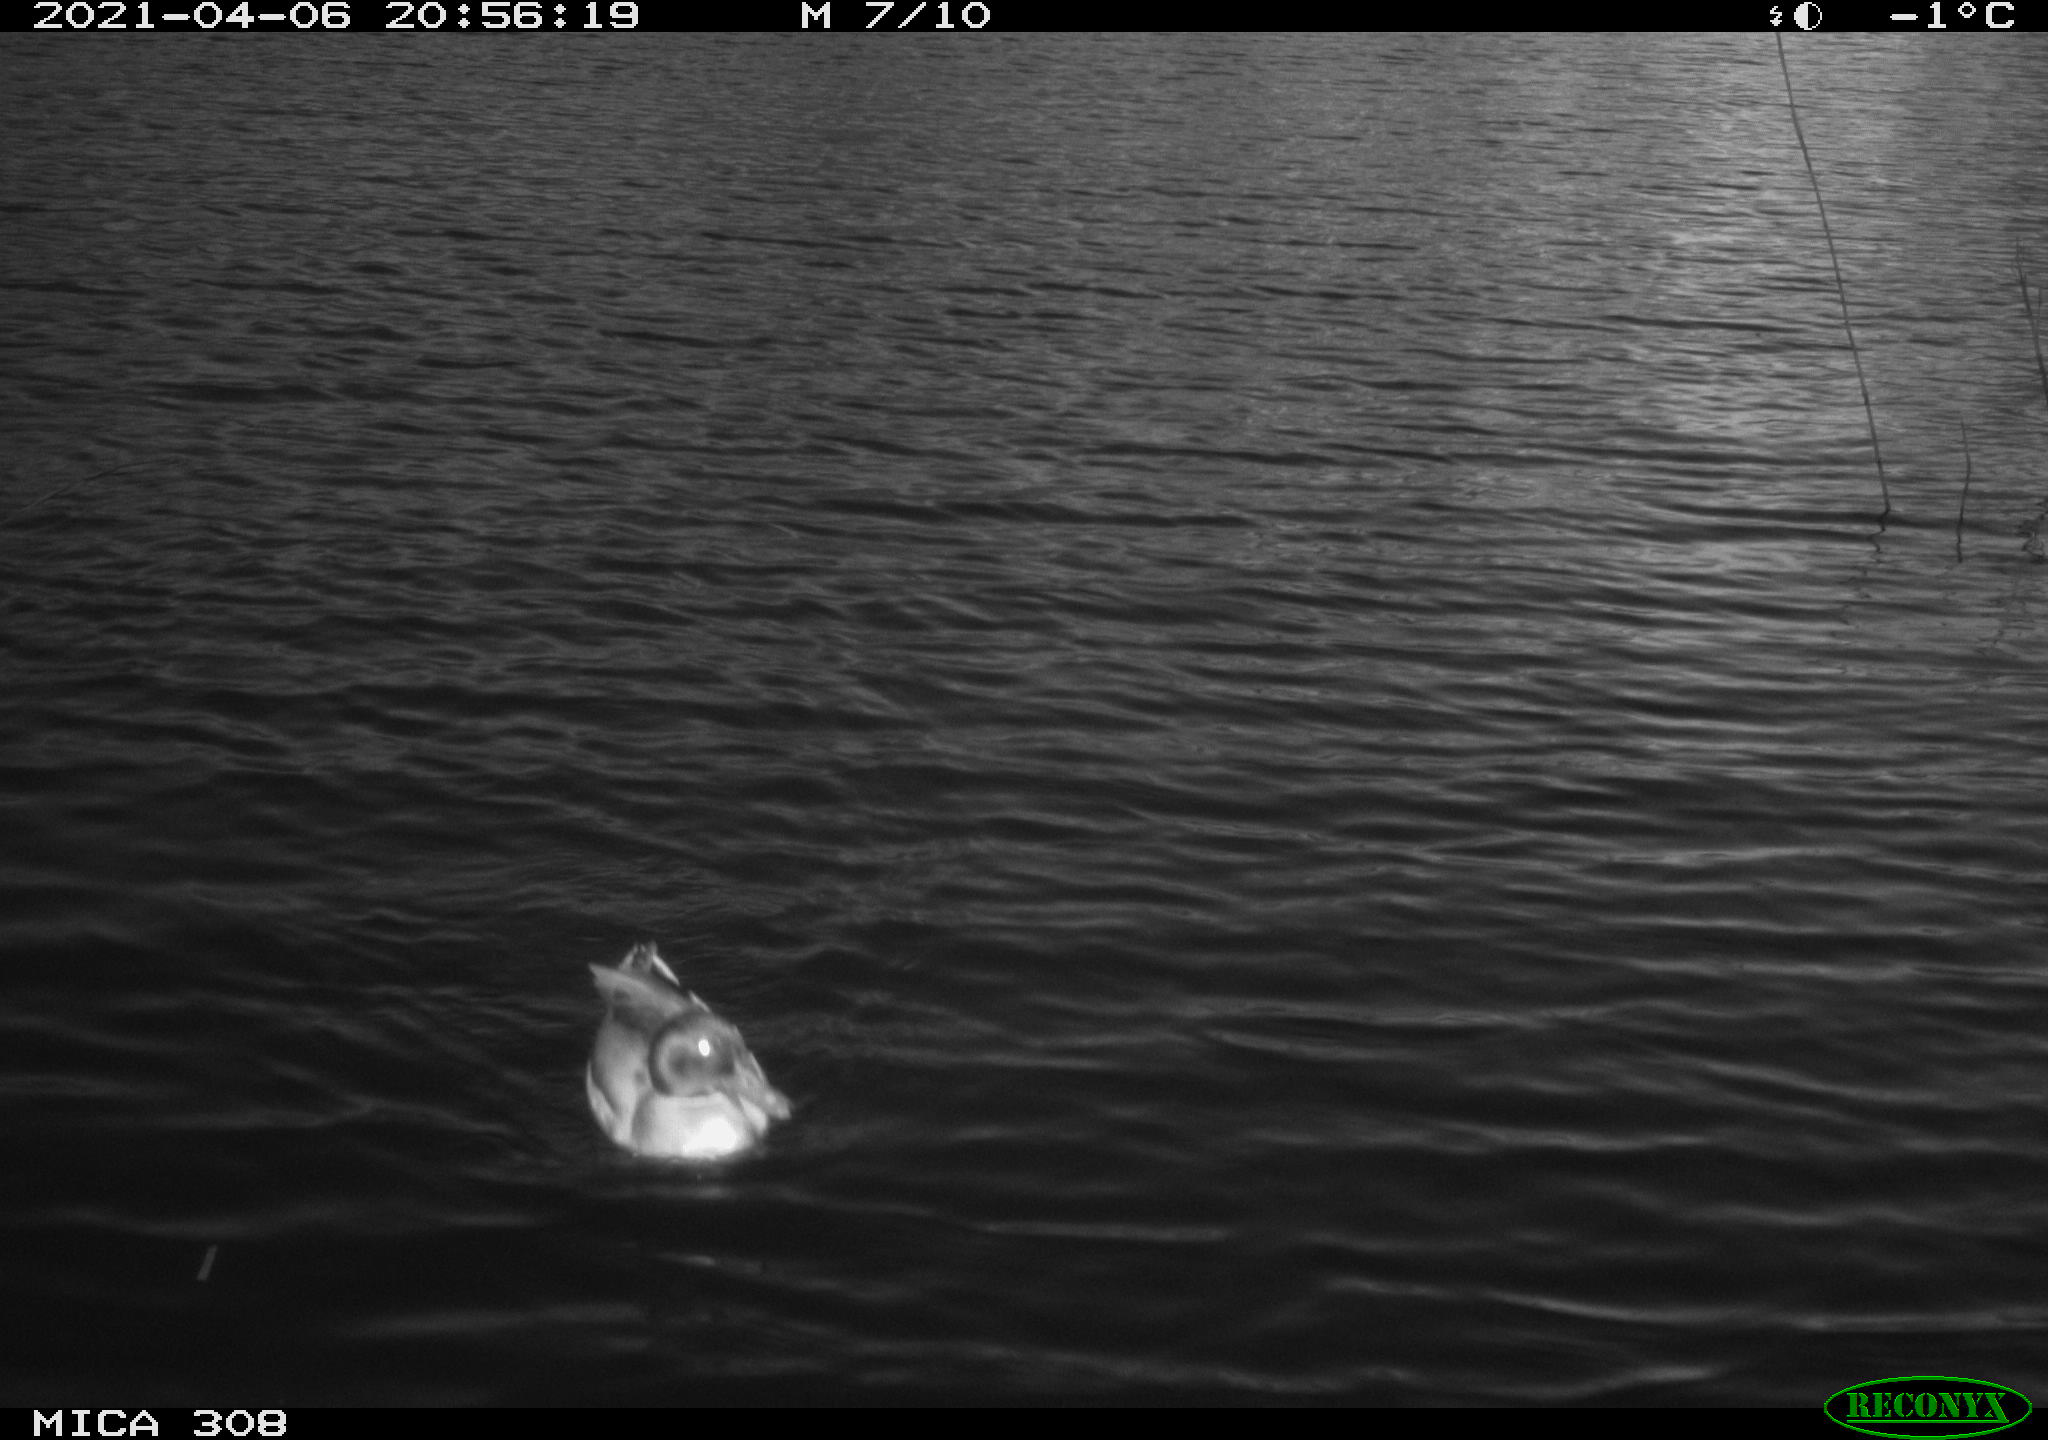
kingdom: Animalia
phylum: Chordata
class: Aves
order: Anseriformes
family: Anatidae
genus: Anas
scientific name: Anas platyrhynchos
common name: Mallard
